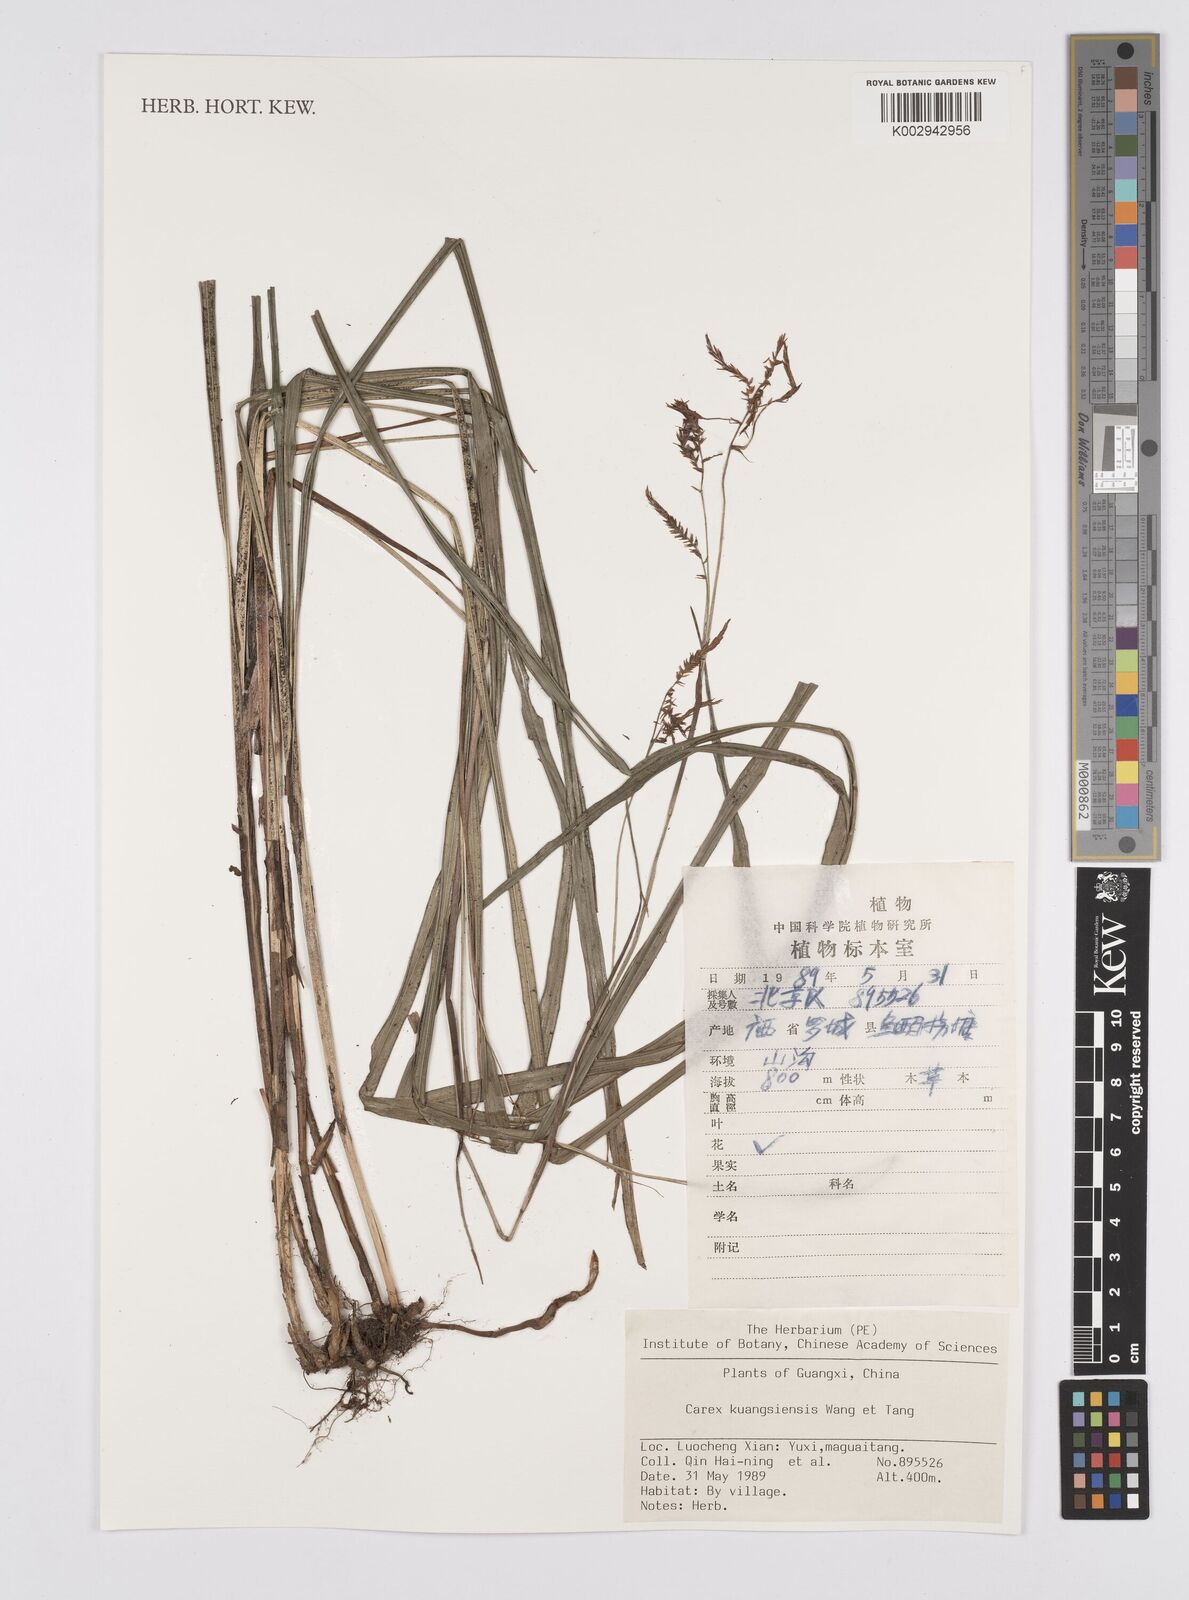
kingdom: Plantae
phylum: Tracheophyta
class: Liliopsida
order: Poales
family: Cyperaceae
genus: Carex
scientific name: Carex
